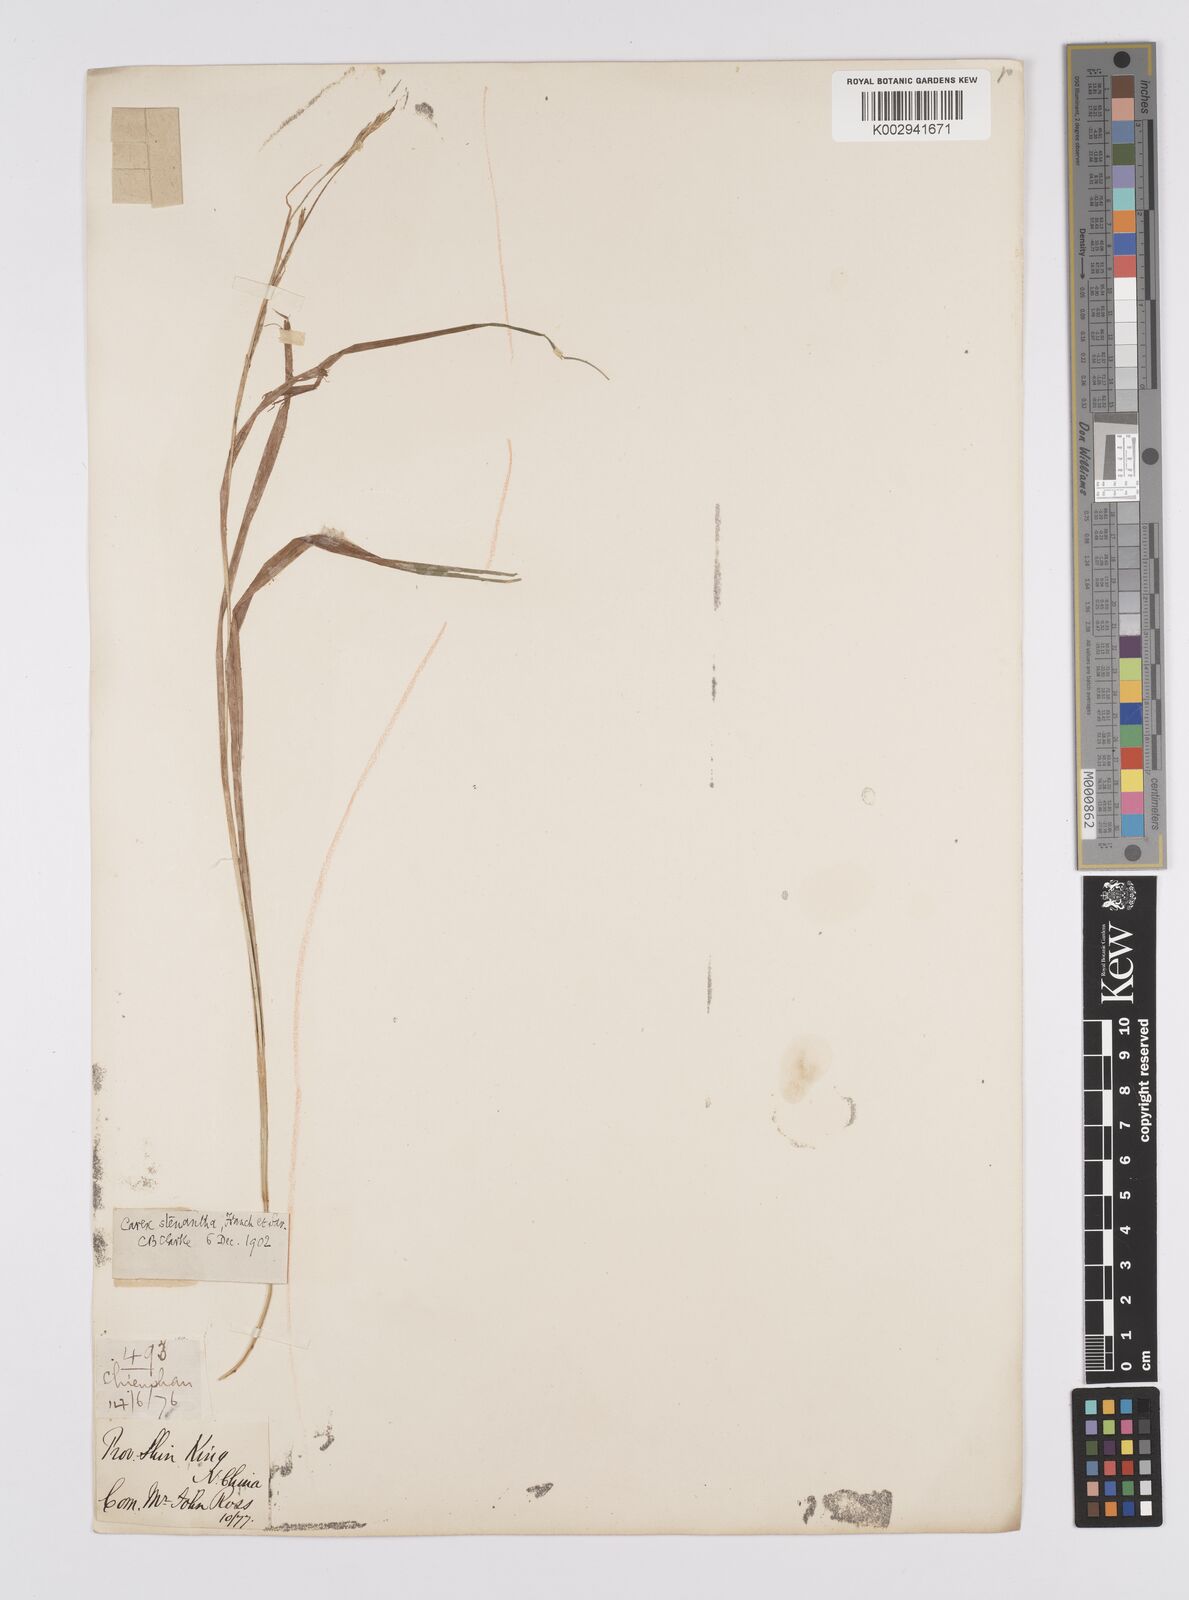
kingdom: Plantae
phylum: Tracheophyta
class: Liliopsida
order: Poales
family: Cyperaceae
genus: Carex
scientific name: Carex stenantha
